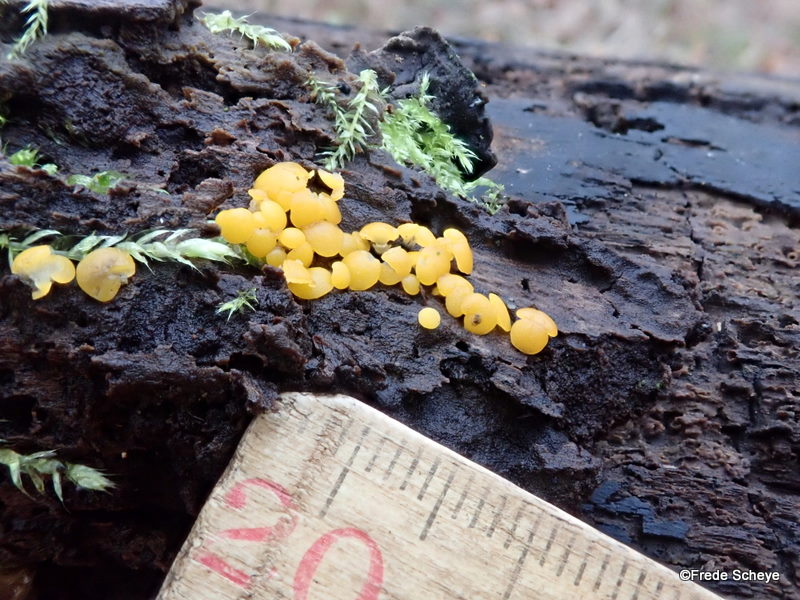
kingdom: Fungi
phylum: Ascomycota
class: Leotiomycetes
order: Helotiales
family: Pezizellaceae
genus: Calycina
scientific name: Calycina citrina
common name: almindelig gulskive
